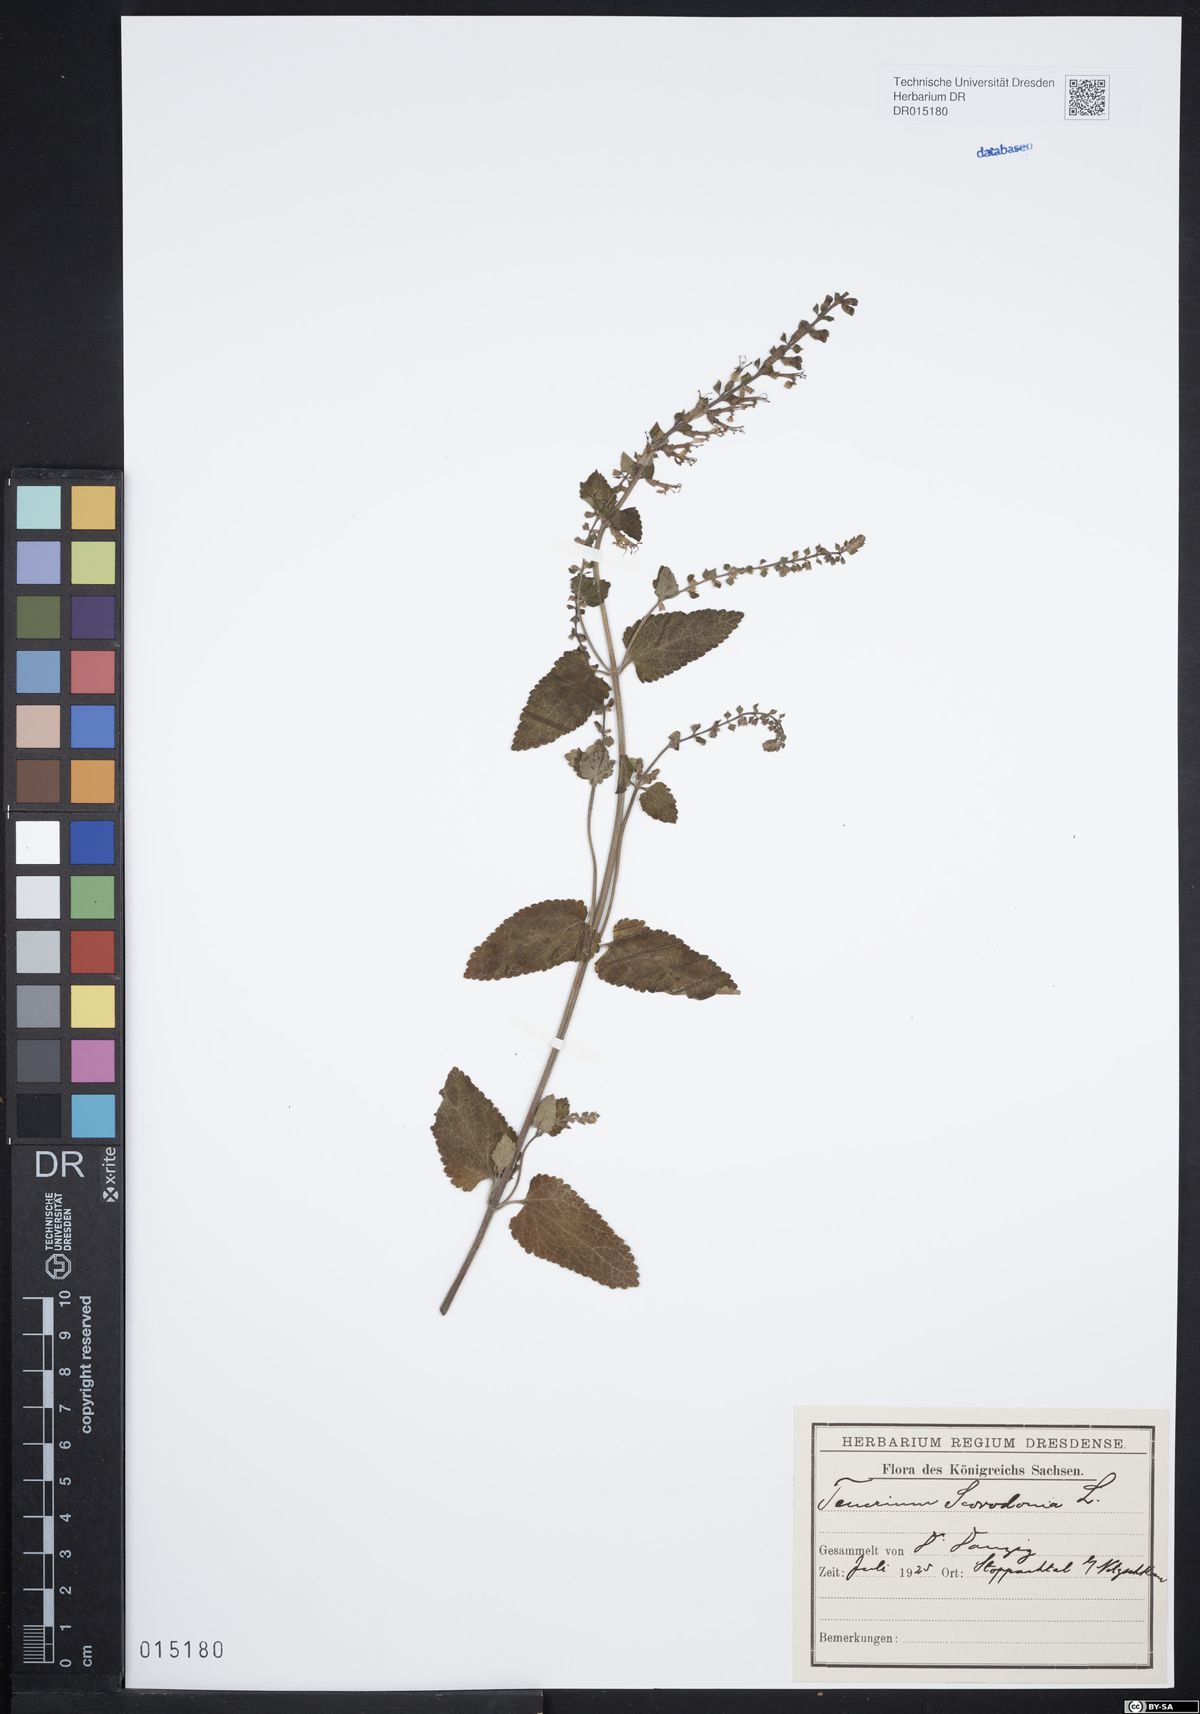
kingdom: Plantae
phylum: Tracheophyta
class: Magnoliopsida
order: Lamiales
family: Lamiaceae
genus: Teucrium
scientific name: Teucrium scorodonia
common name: Woodland germander
